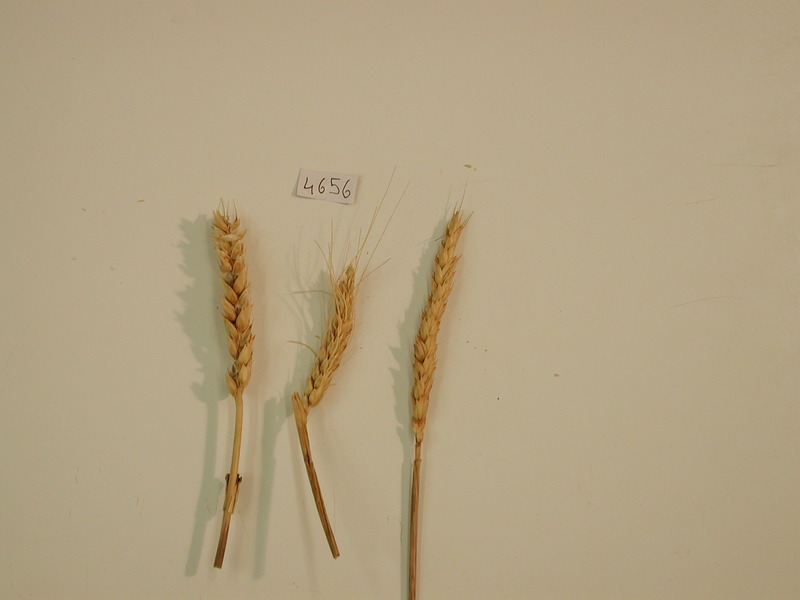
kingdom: Plantae
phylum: Tracheophyta
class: Liliopsida
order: Poales
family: Poaceae
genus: Triticum
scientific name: Triticum aestivum
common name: Wheat
